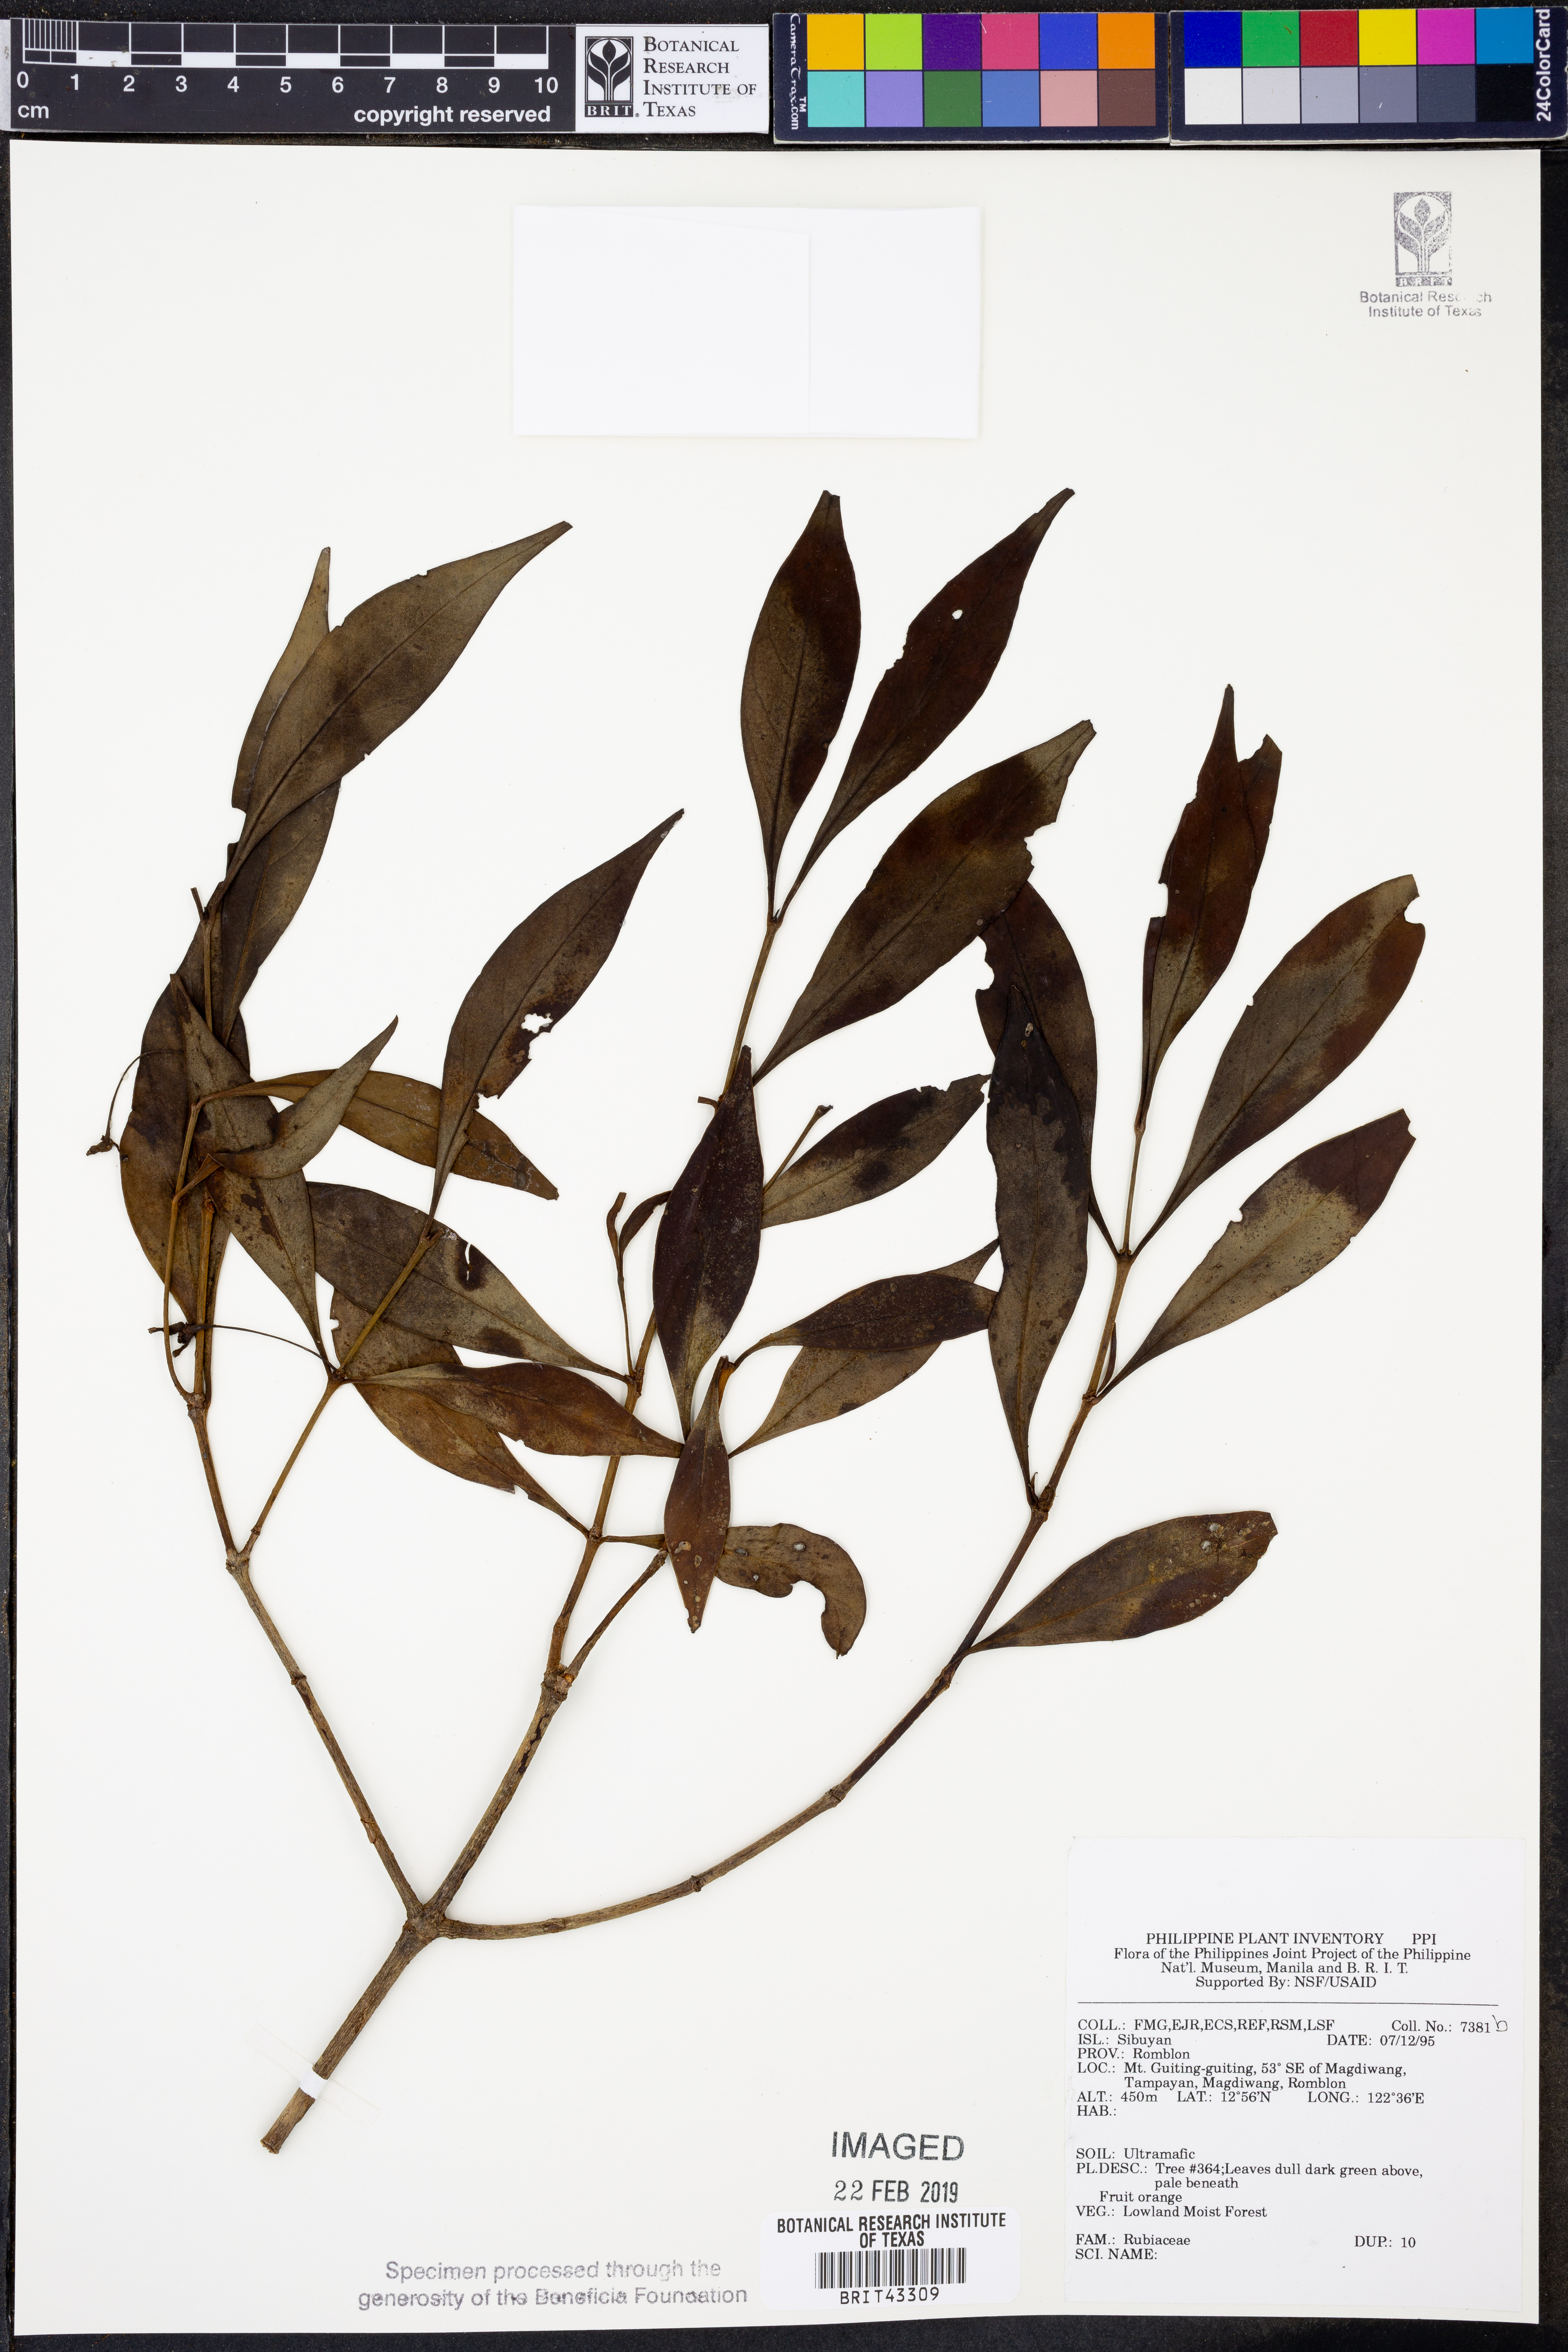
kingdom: Plantae
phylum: Tracheophyta
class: Magnoliopsida
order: Gentianales
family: Rubiaceae
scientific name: Rubiaceae
